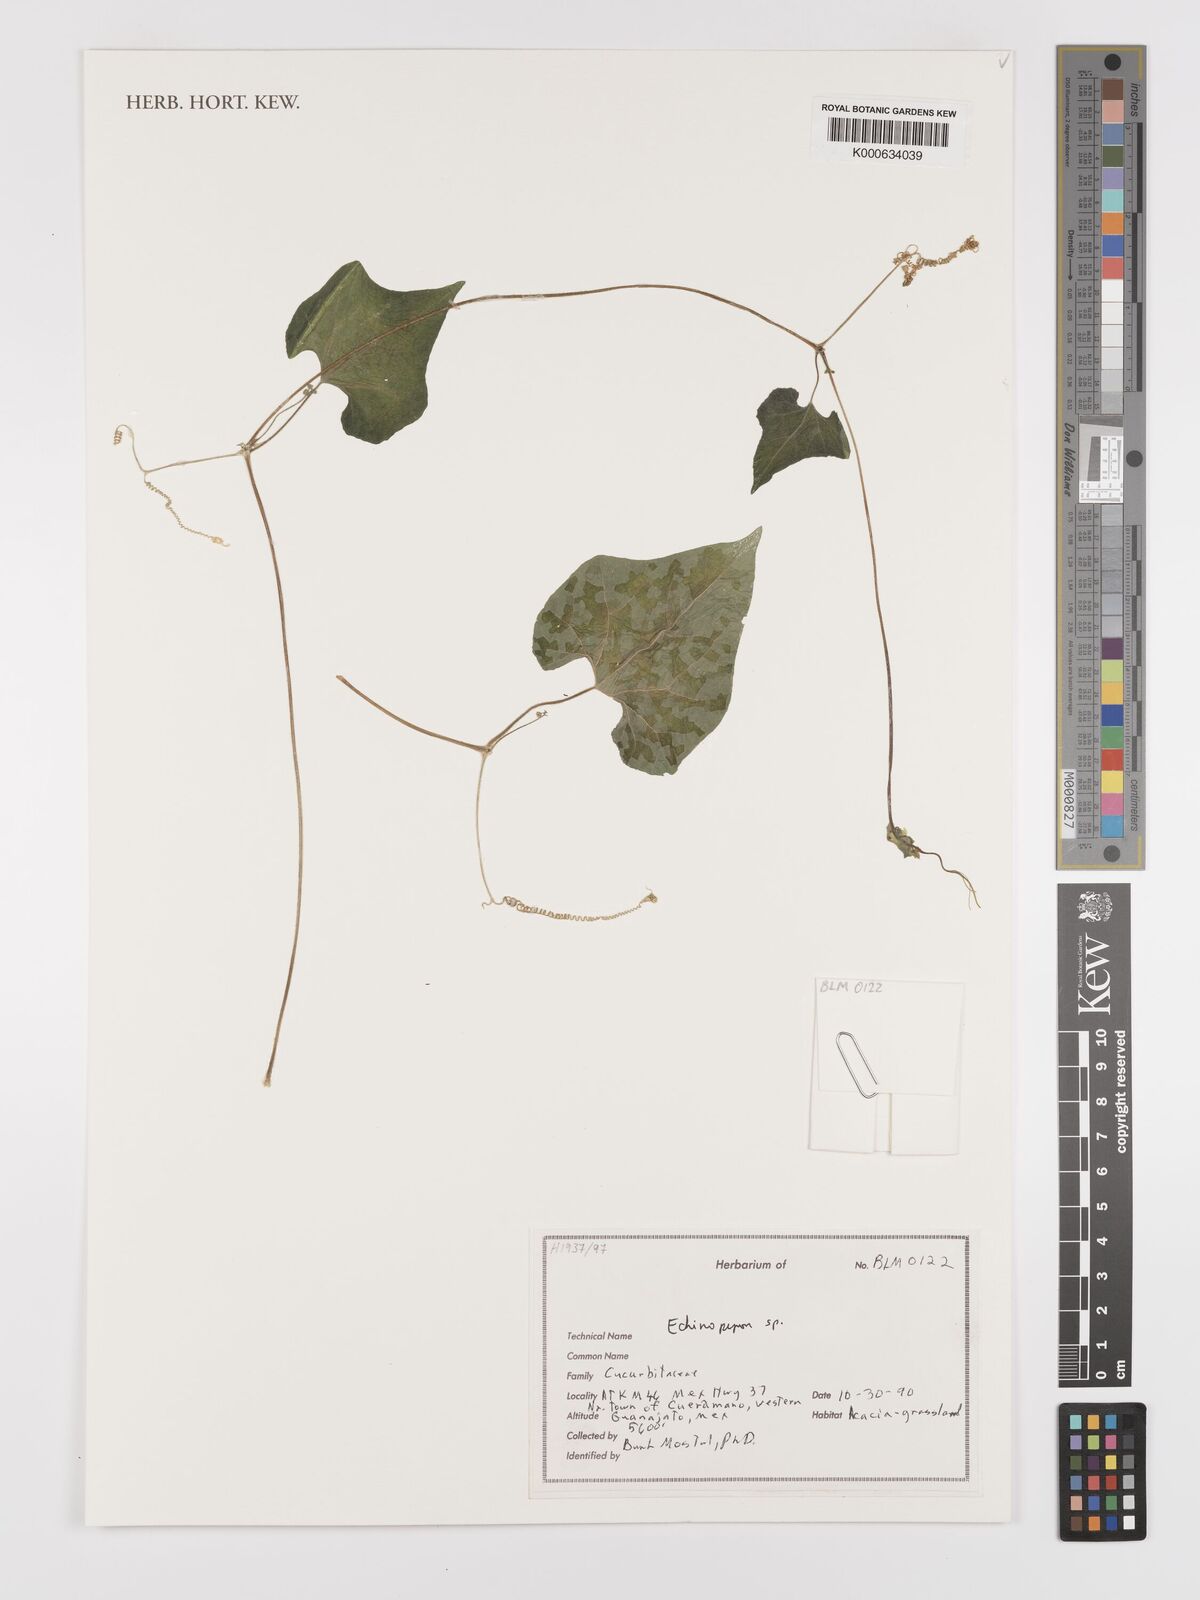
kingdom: Plantae
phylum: Tracheophyta
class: Magnoliopsida
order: Cucurbitales
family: Cucurbitaceae
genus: Echinopepon
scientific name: Echinopepon
